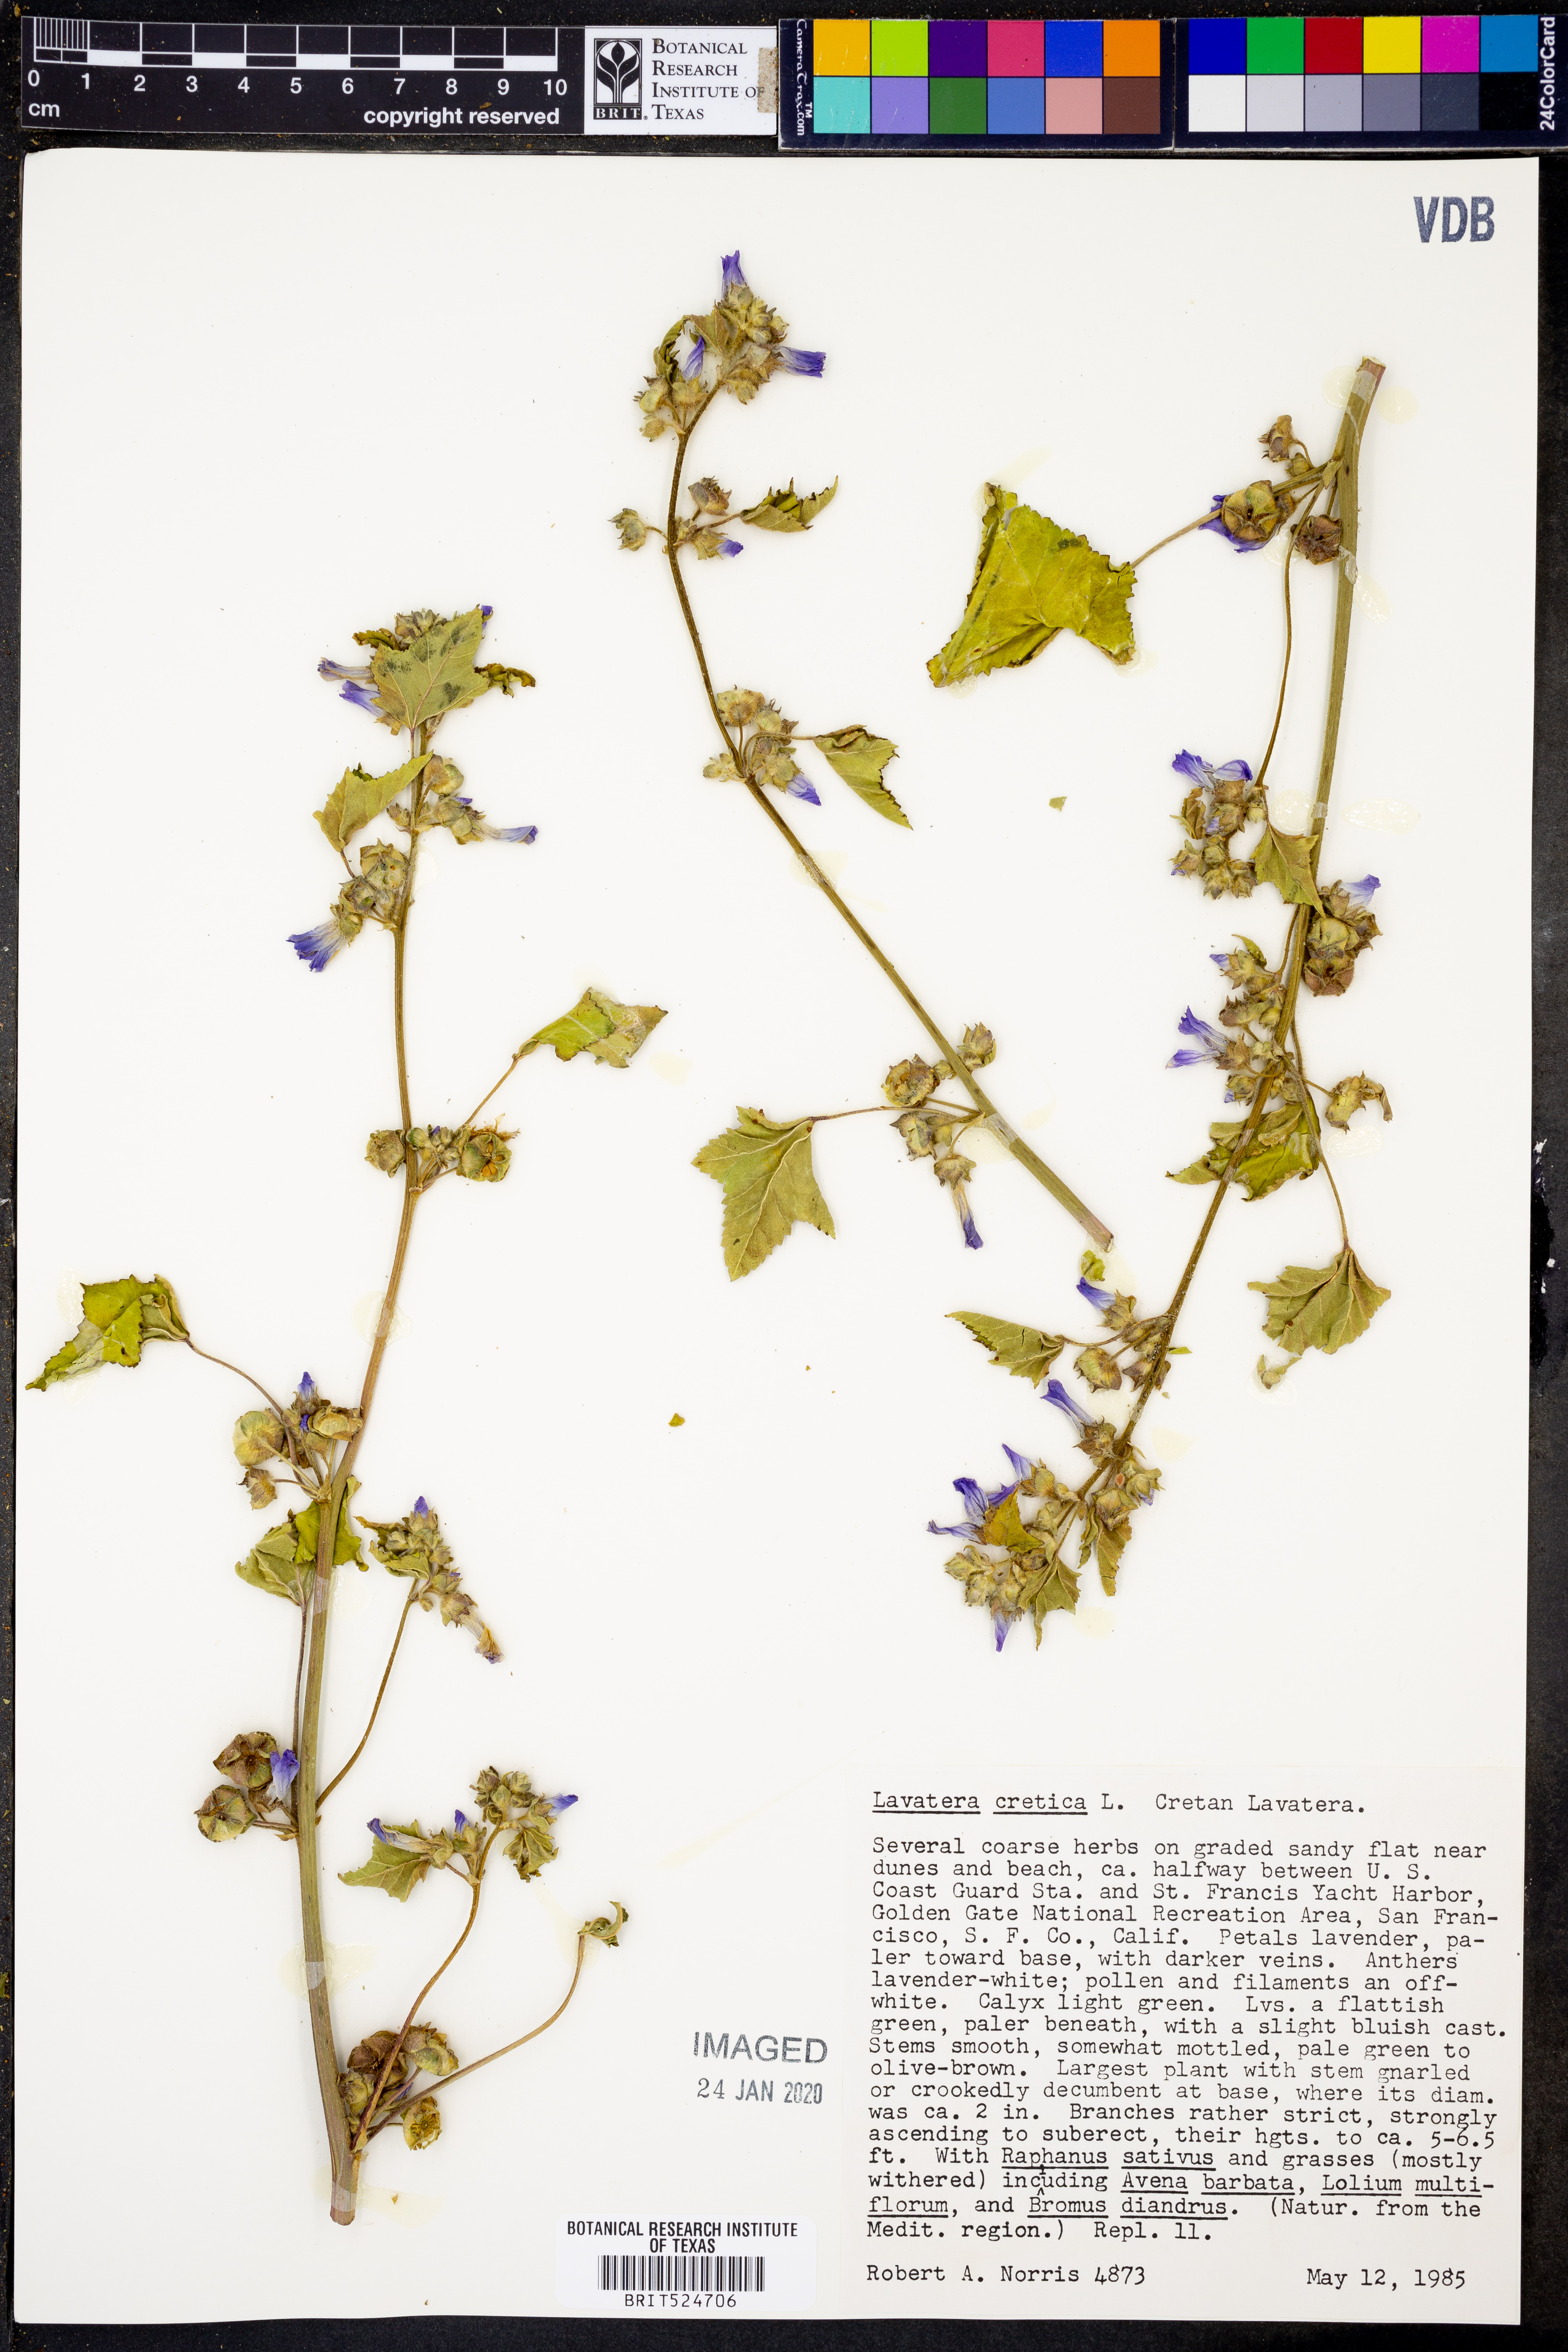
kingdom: Plantae
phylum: Tracheophyta
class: Magnoliopsida
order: Malvales
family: Malvaceae
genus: Malva
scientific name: Malva multiflora
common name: Cheeseweed
